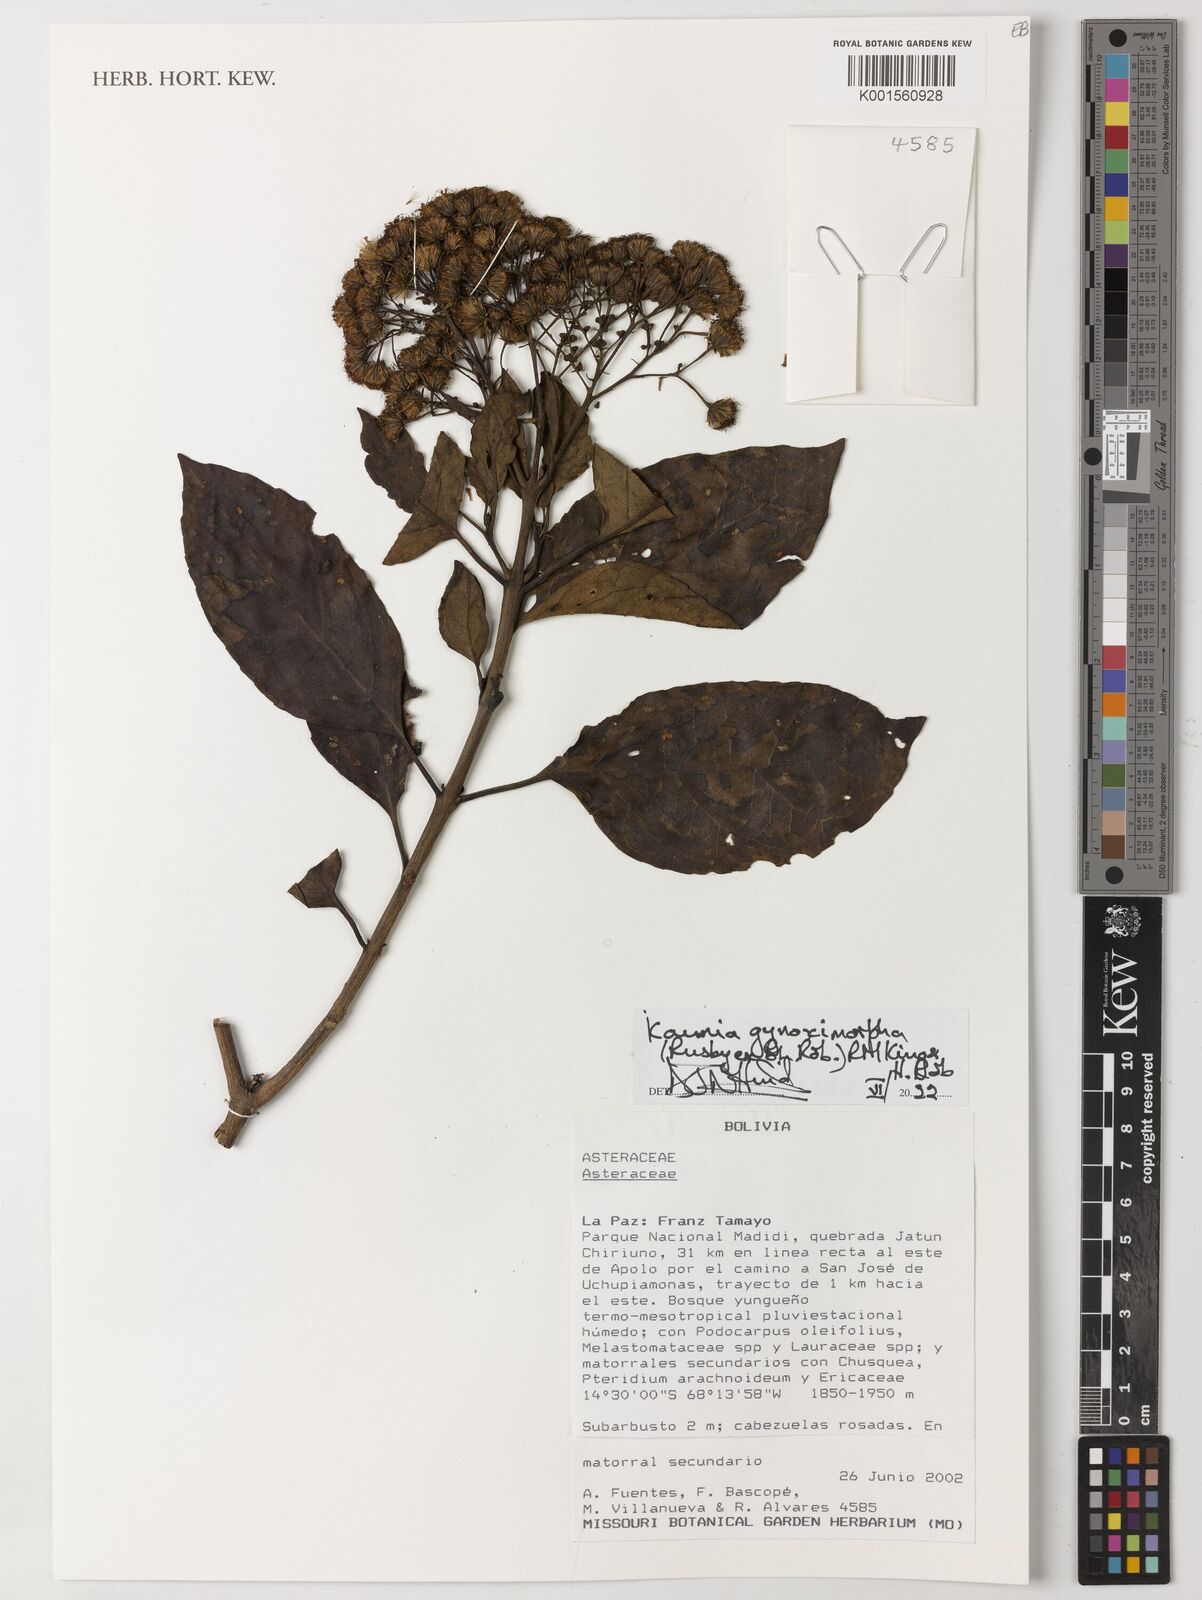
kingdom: Plantae
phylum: Tracheophyta
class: Magnoliopsida
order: Asterales
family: Asteraceae
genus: Kaunia
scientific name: Kaunia gynoximorpha
